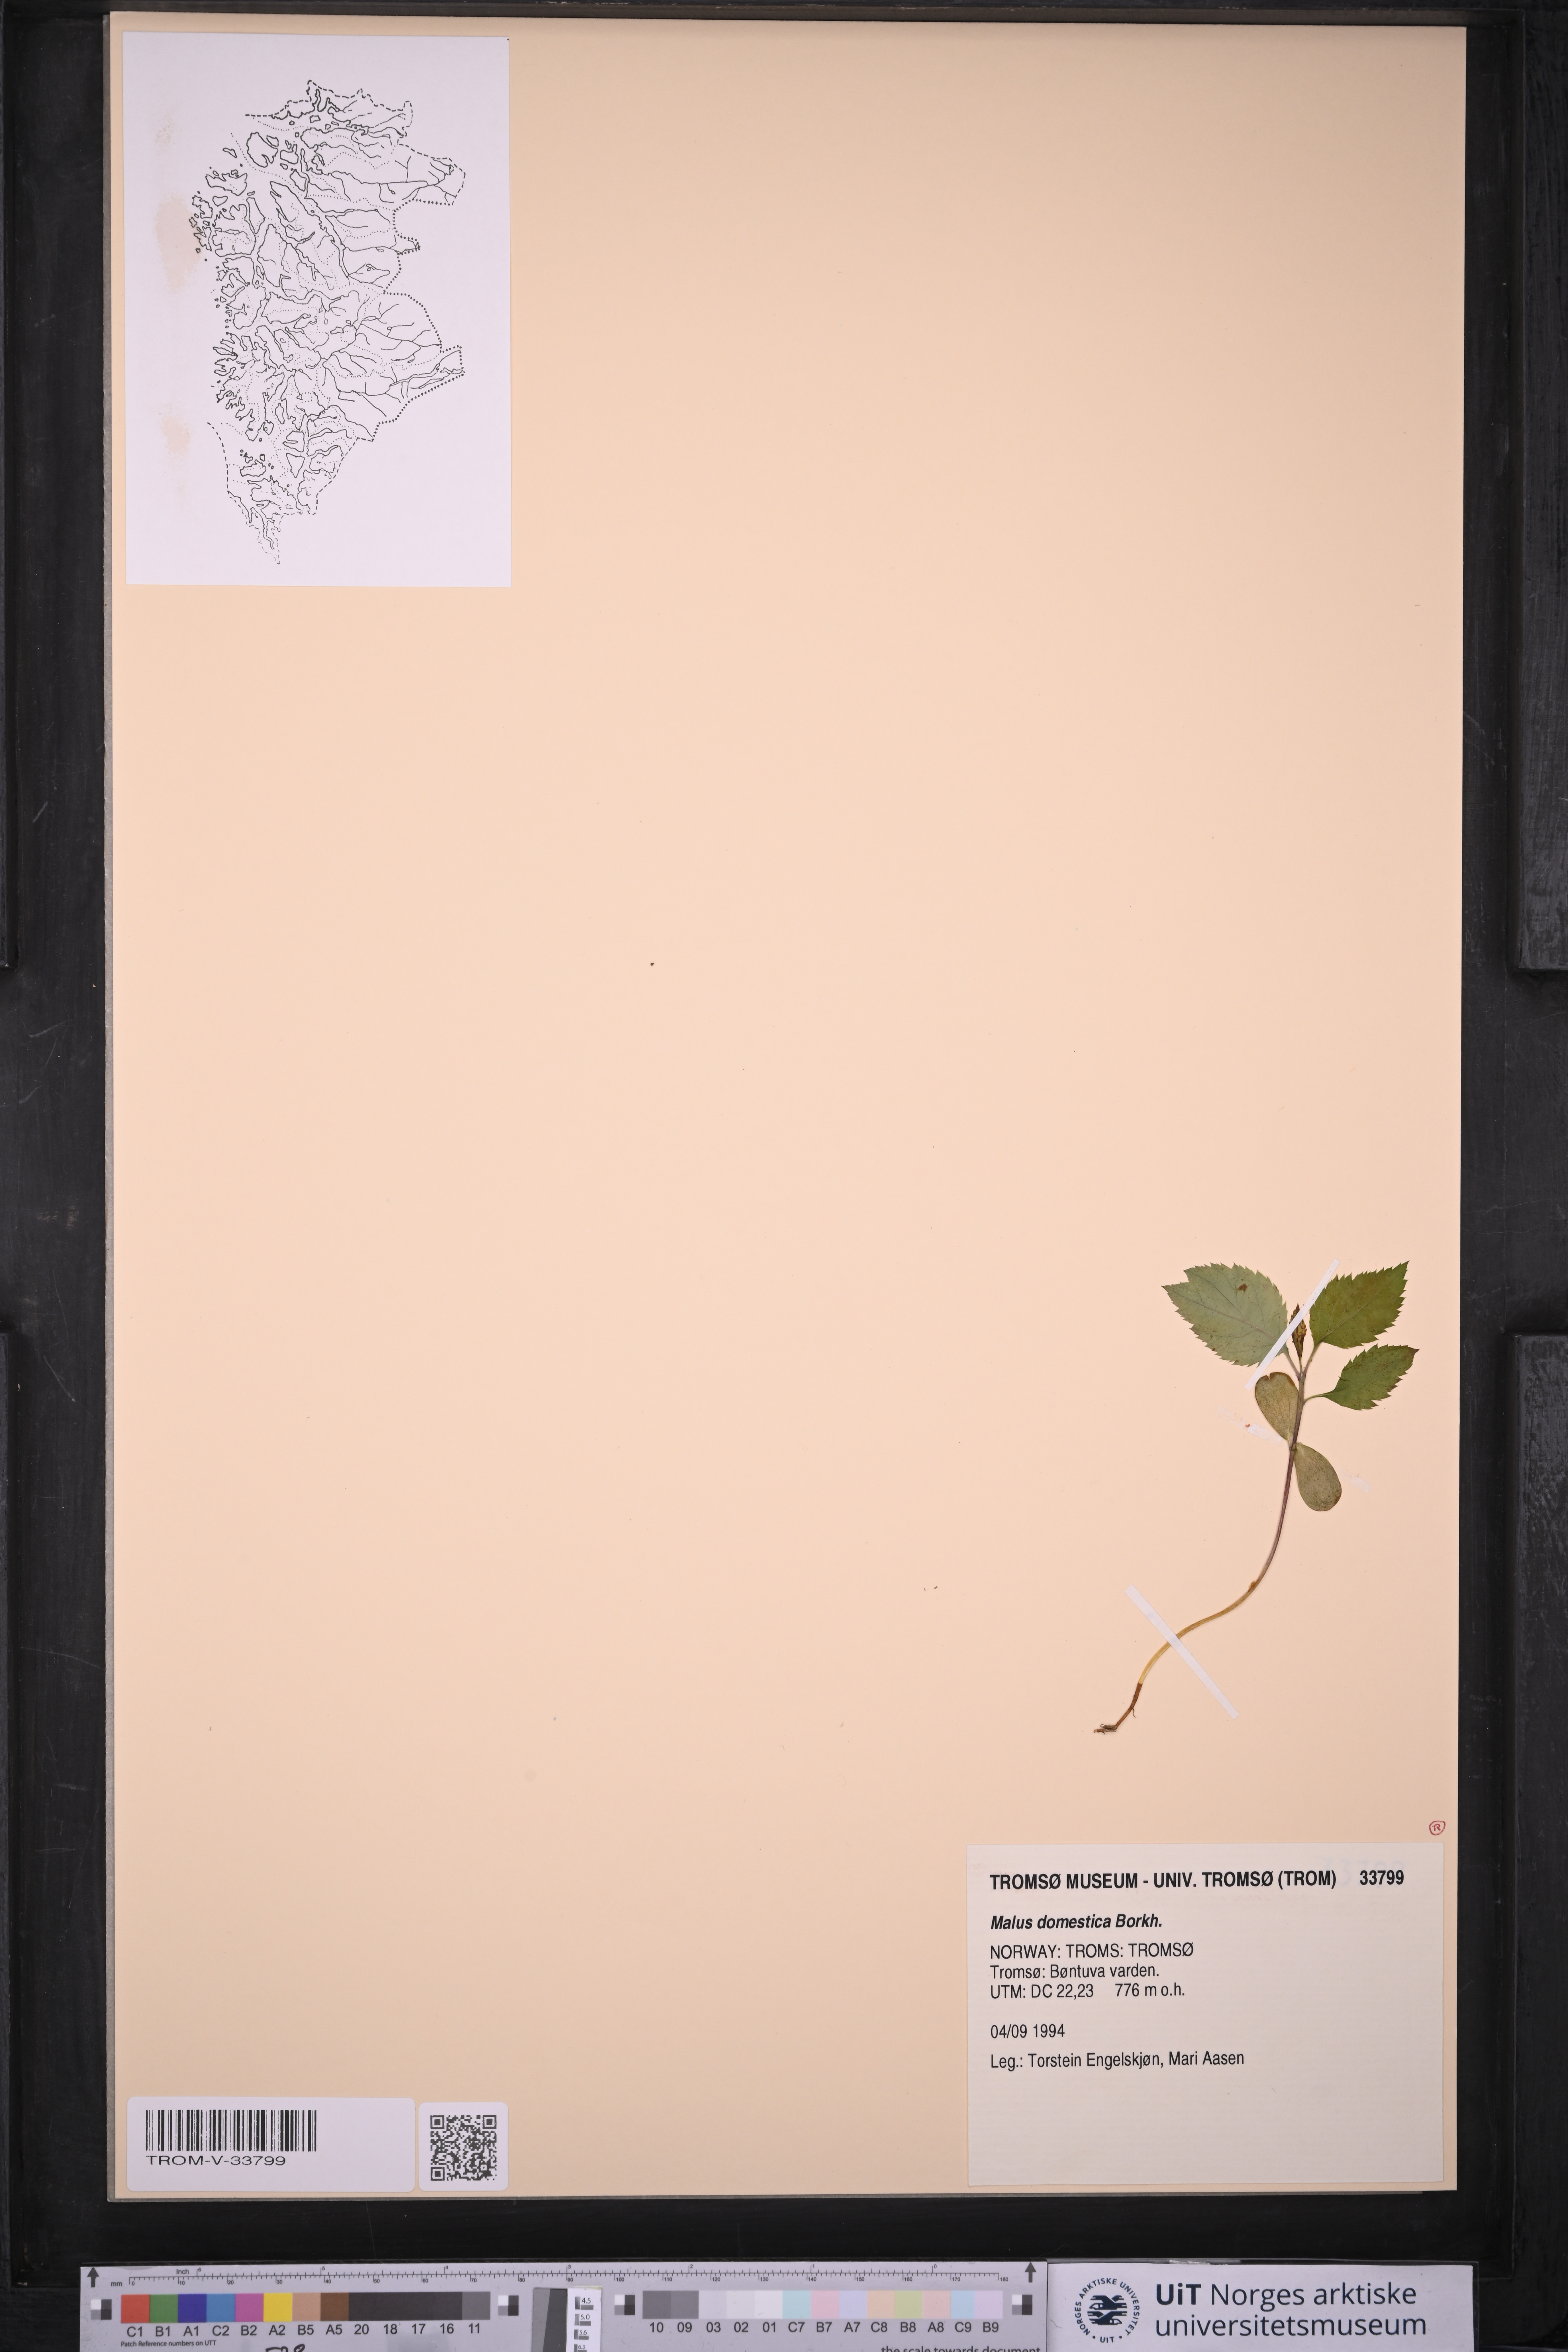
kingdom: Plantae
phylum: Tracheophyta
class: Magnoliopsida
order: Rosales
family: Rosaceae
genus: Malus
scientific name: Malus domestica
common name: Apple
